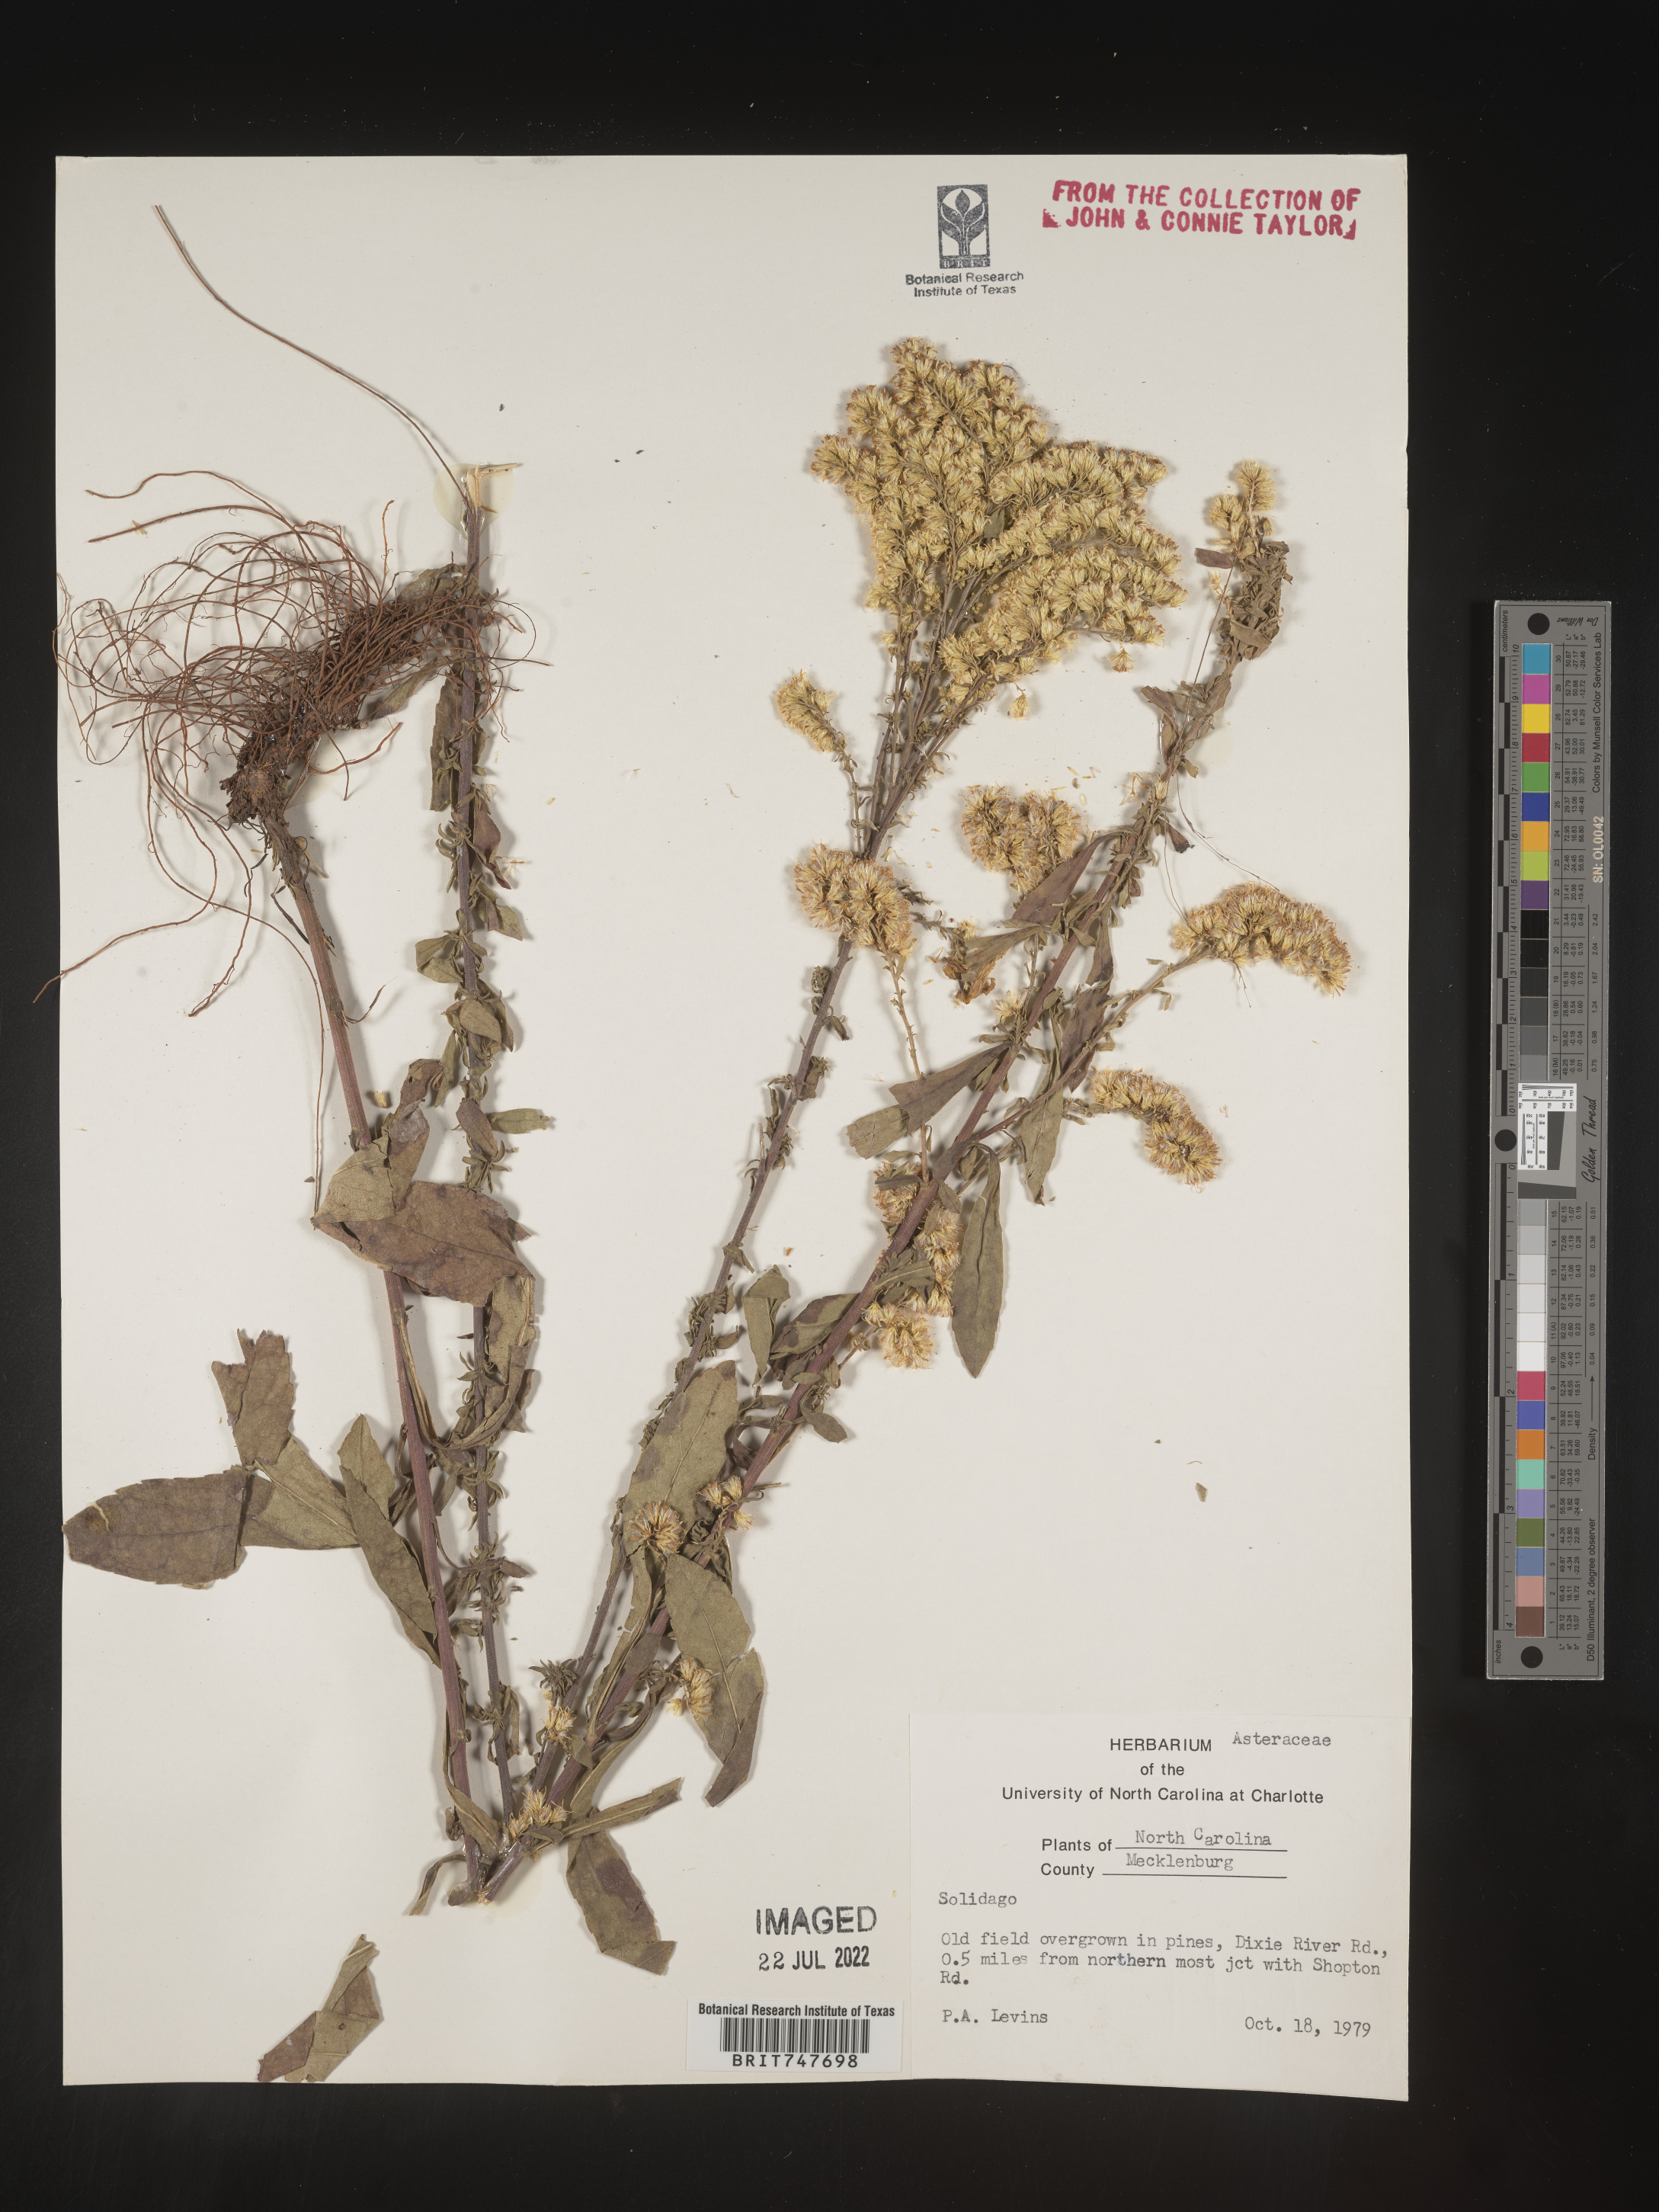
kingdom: Plantae
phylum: Tracheophyta
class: Magnoliopsida
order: Asterales
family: Asteraceae
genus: Solidago
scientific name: Solidago nemoralis
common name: Grey goldenrod
